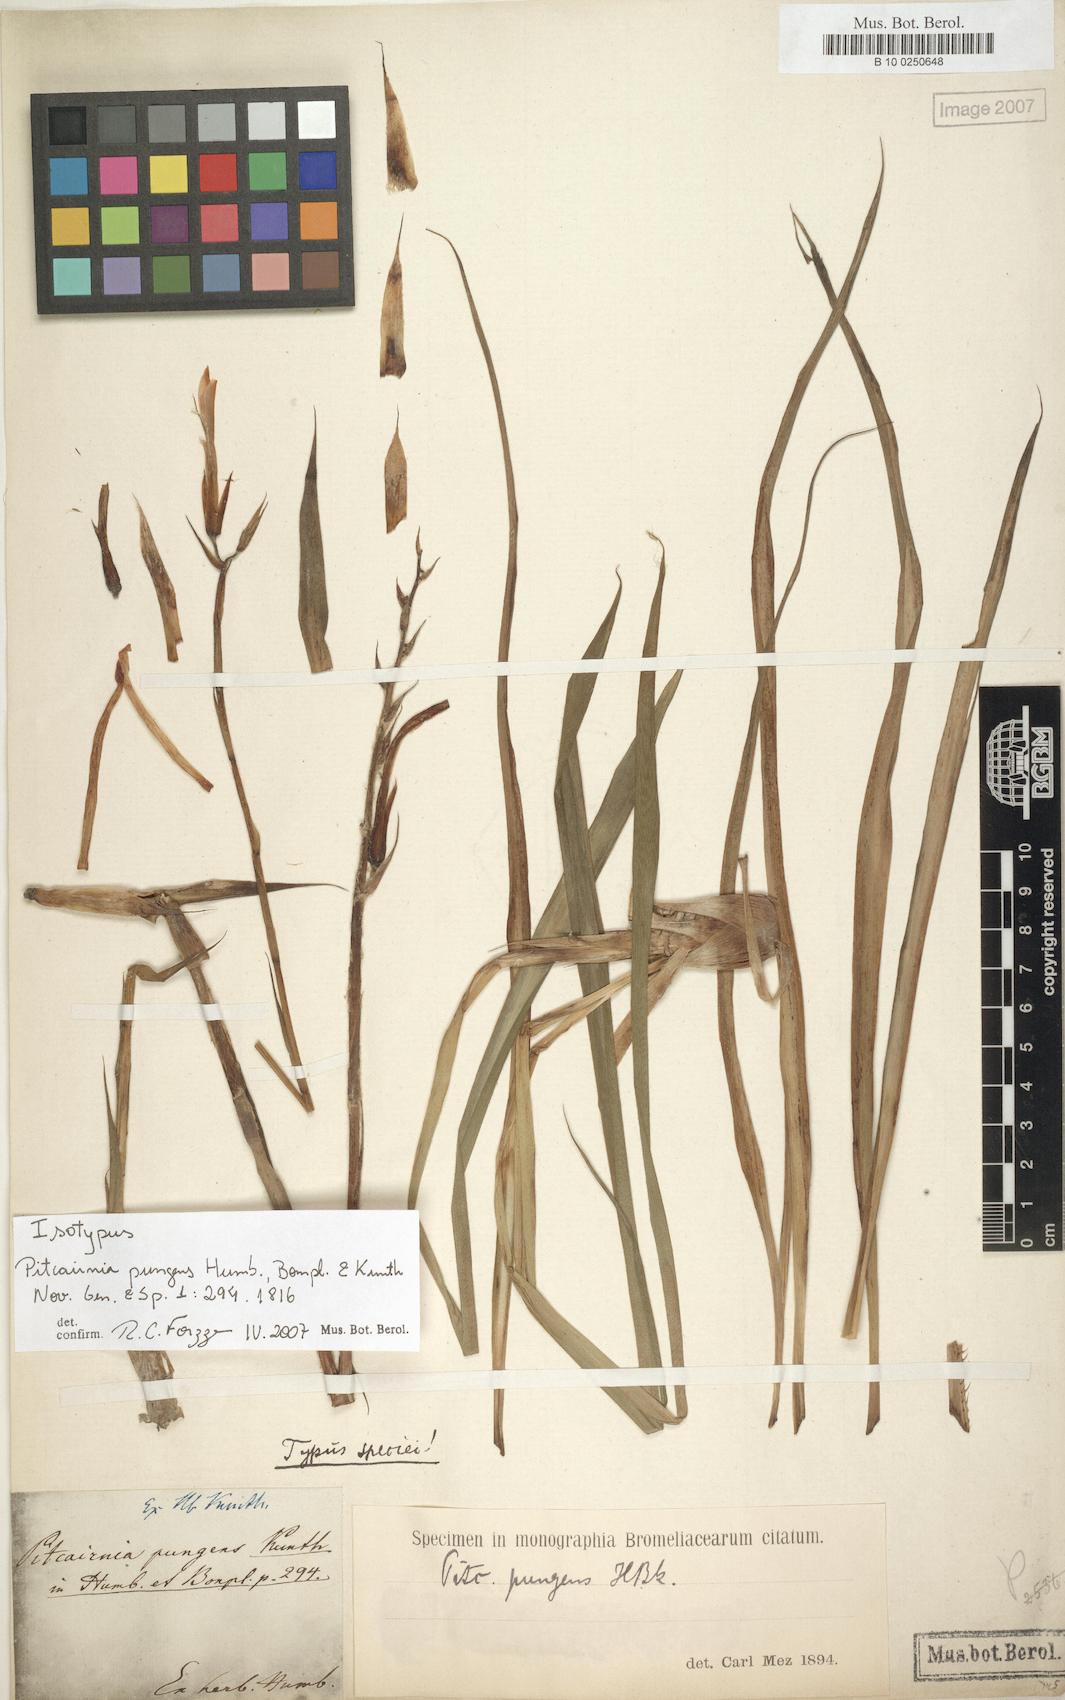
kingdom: Plantae
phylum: Tracheophyta
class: Liliopsida
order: Poales
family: Bromeliaceae
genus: Pitcairnia
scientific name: Pitcairnia pungens
